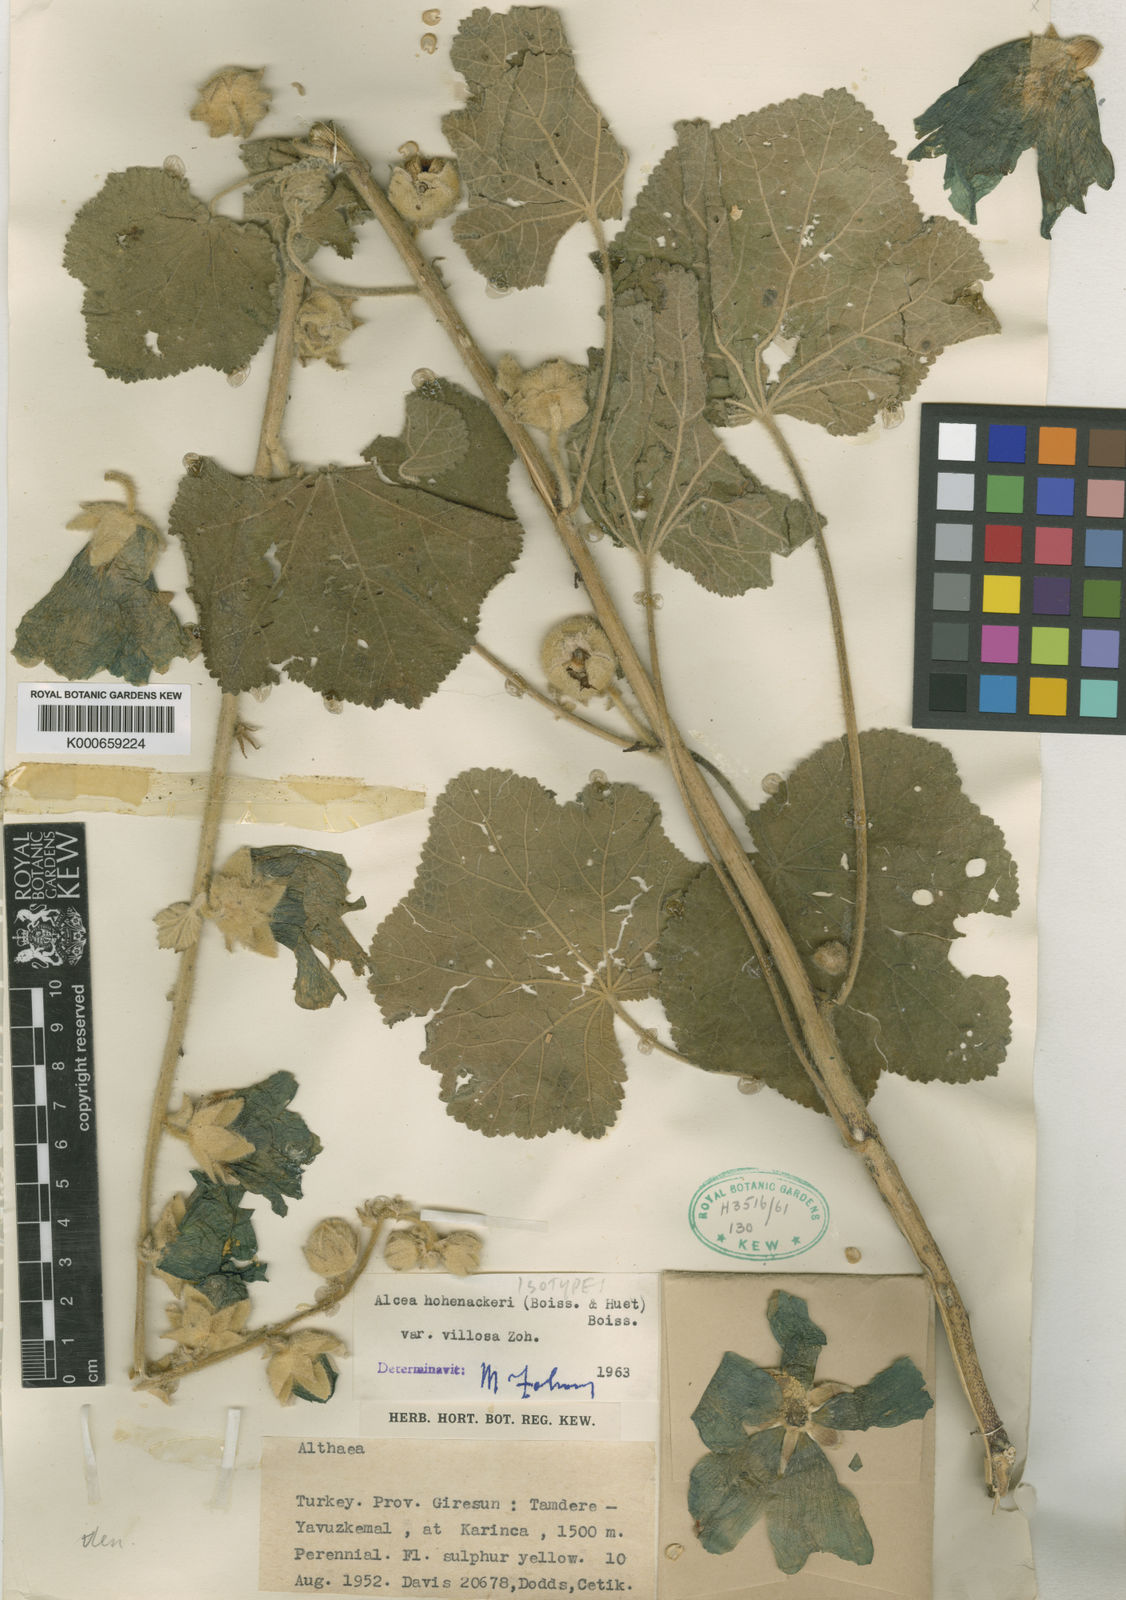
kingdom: Plantae
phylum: Tracheophyta
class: Magnoliopsida
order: Malvales
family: Malvaceae
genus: Alcea
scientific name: Alcea kurdica
